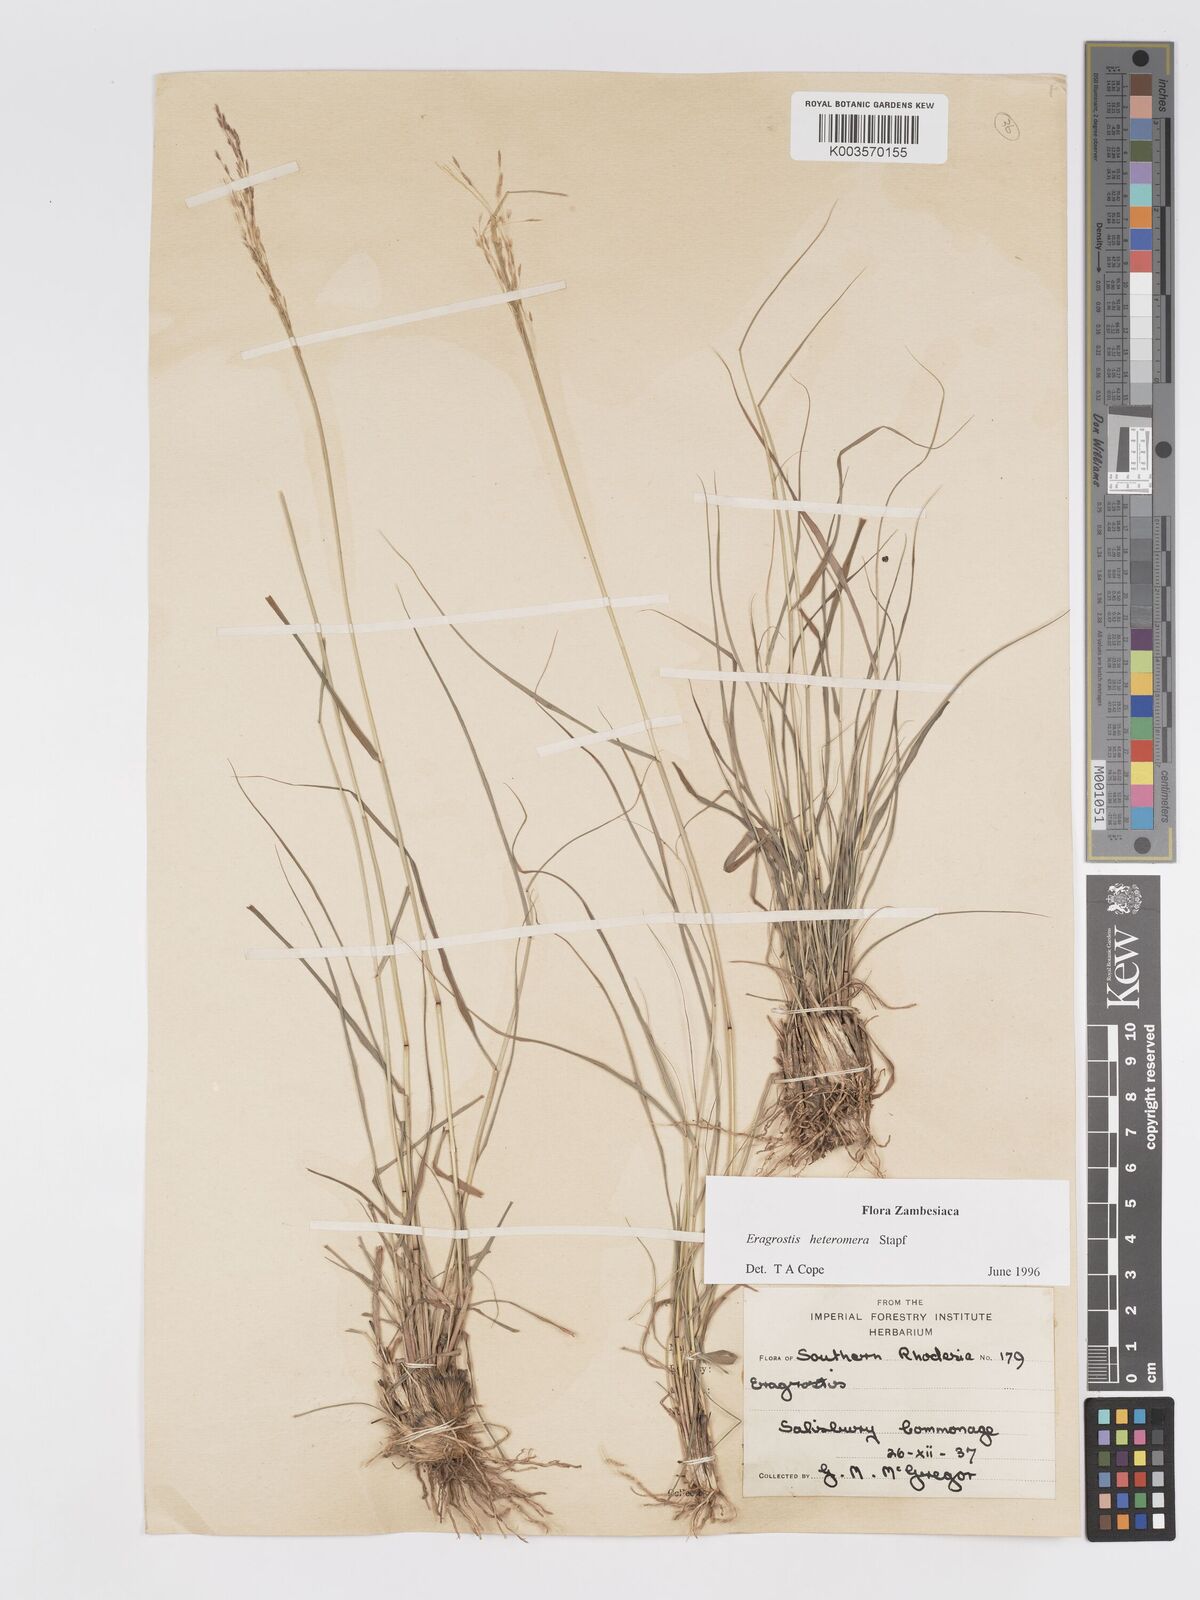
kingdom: Plantae
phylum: Tracheophyta
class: Liliopsida
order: Poales
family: Poaceae
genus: Eragrostis
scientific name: Eragrostis heteromera
